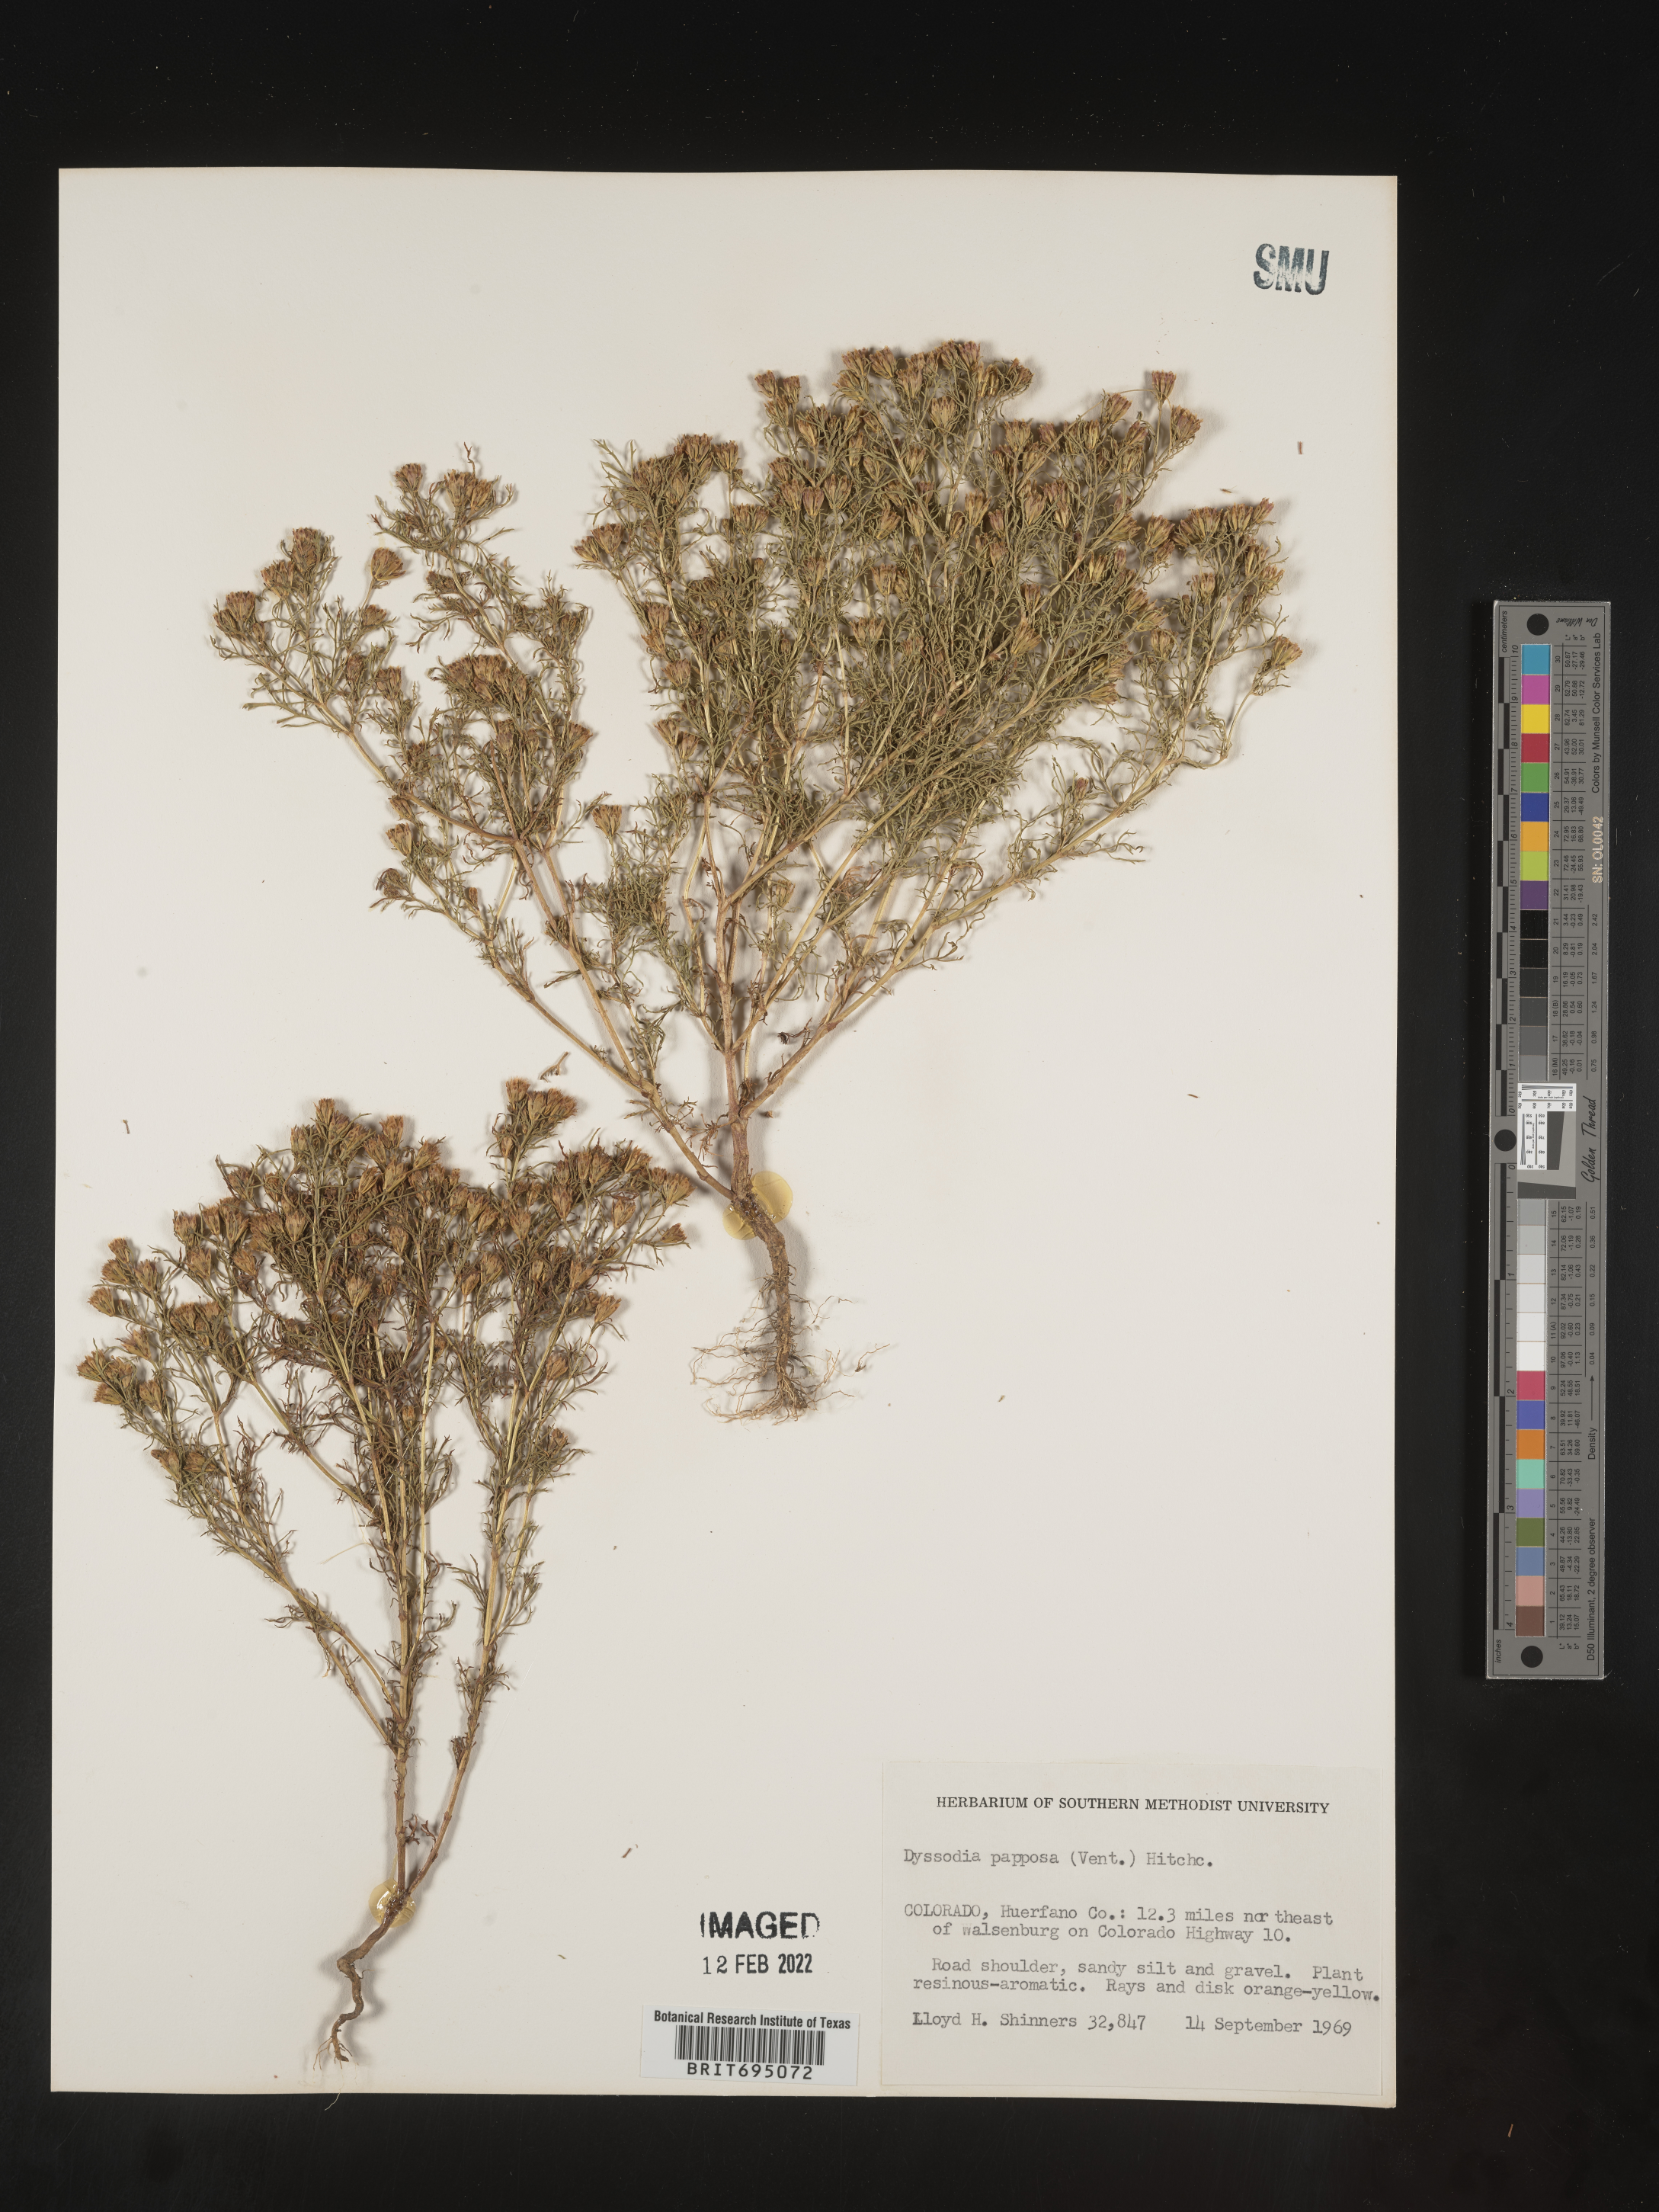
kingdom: Plantae
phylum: Tracheophyta
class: Magnoliopsida
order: Asterales
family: Asteraceae
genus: Dyssodia
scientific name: Dyssodia papposa
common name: Dogweed
